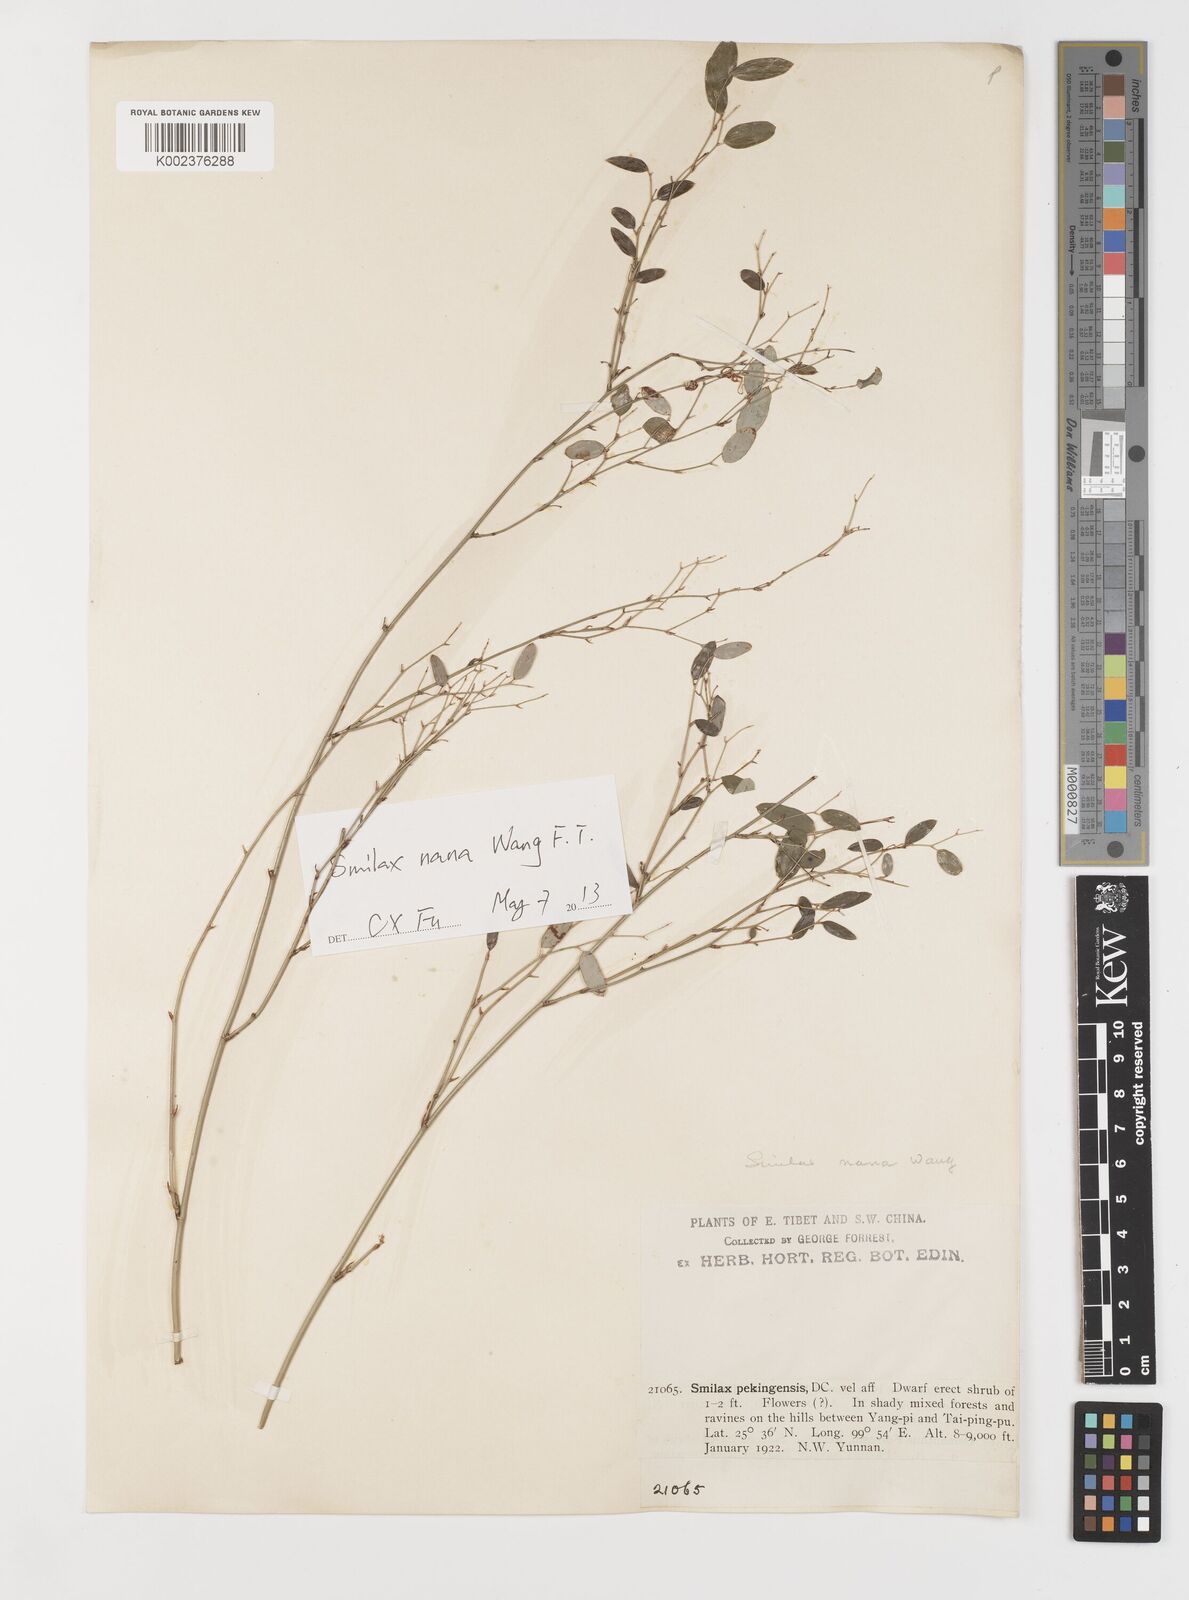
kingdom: Plantae
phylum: Tracheophyta
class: Liliopsida
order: Liliales
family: Smilacaceae
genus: Smilax
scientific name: Smilax nana
